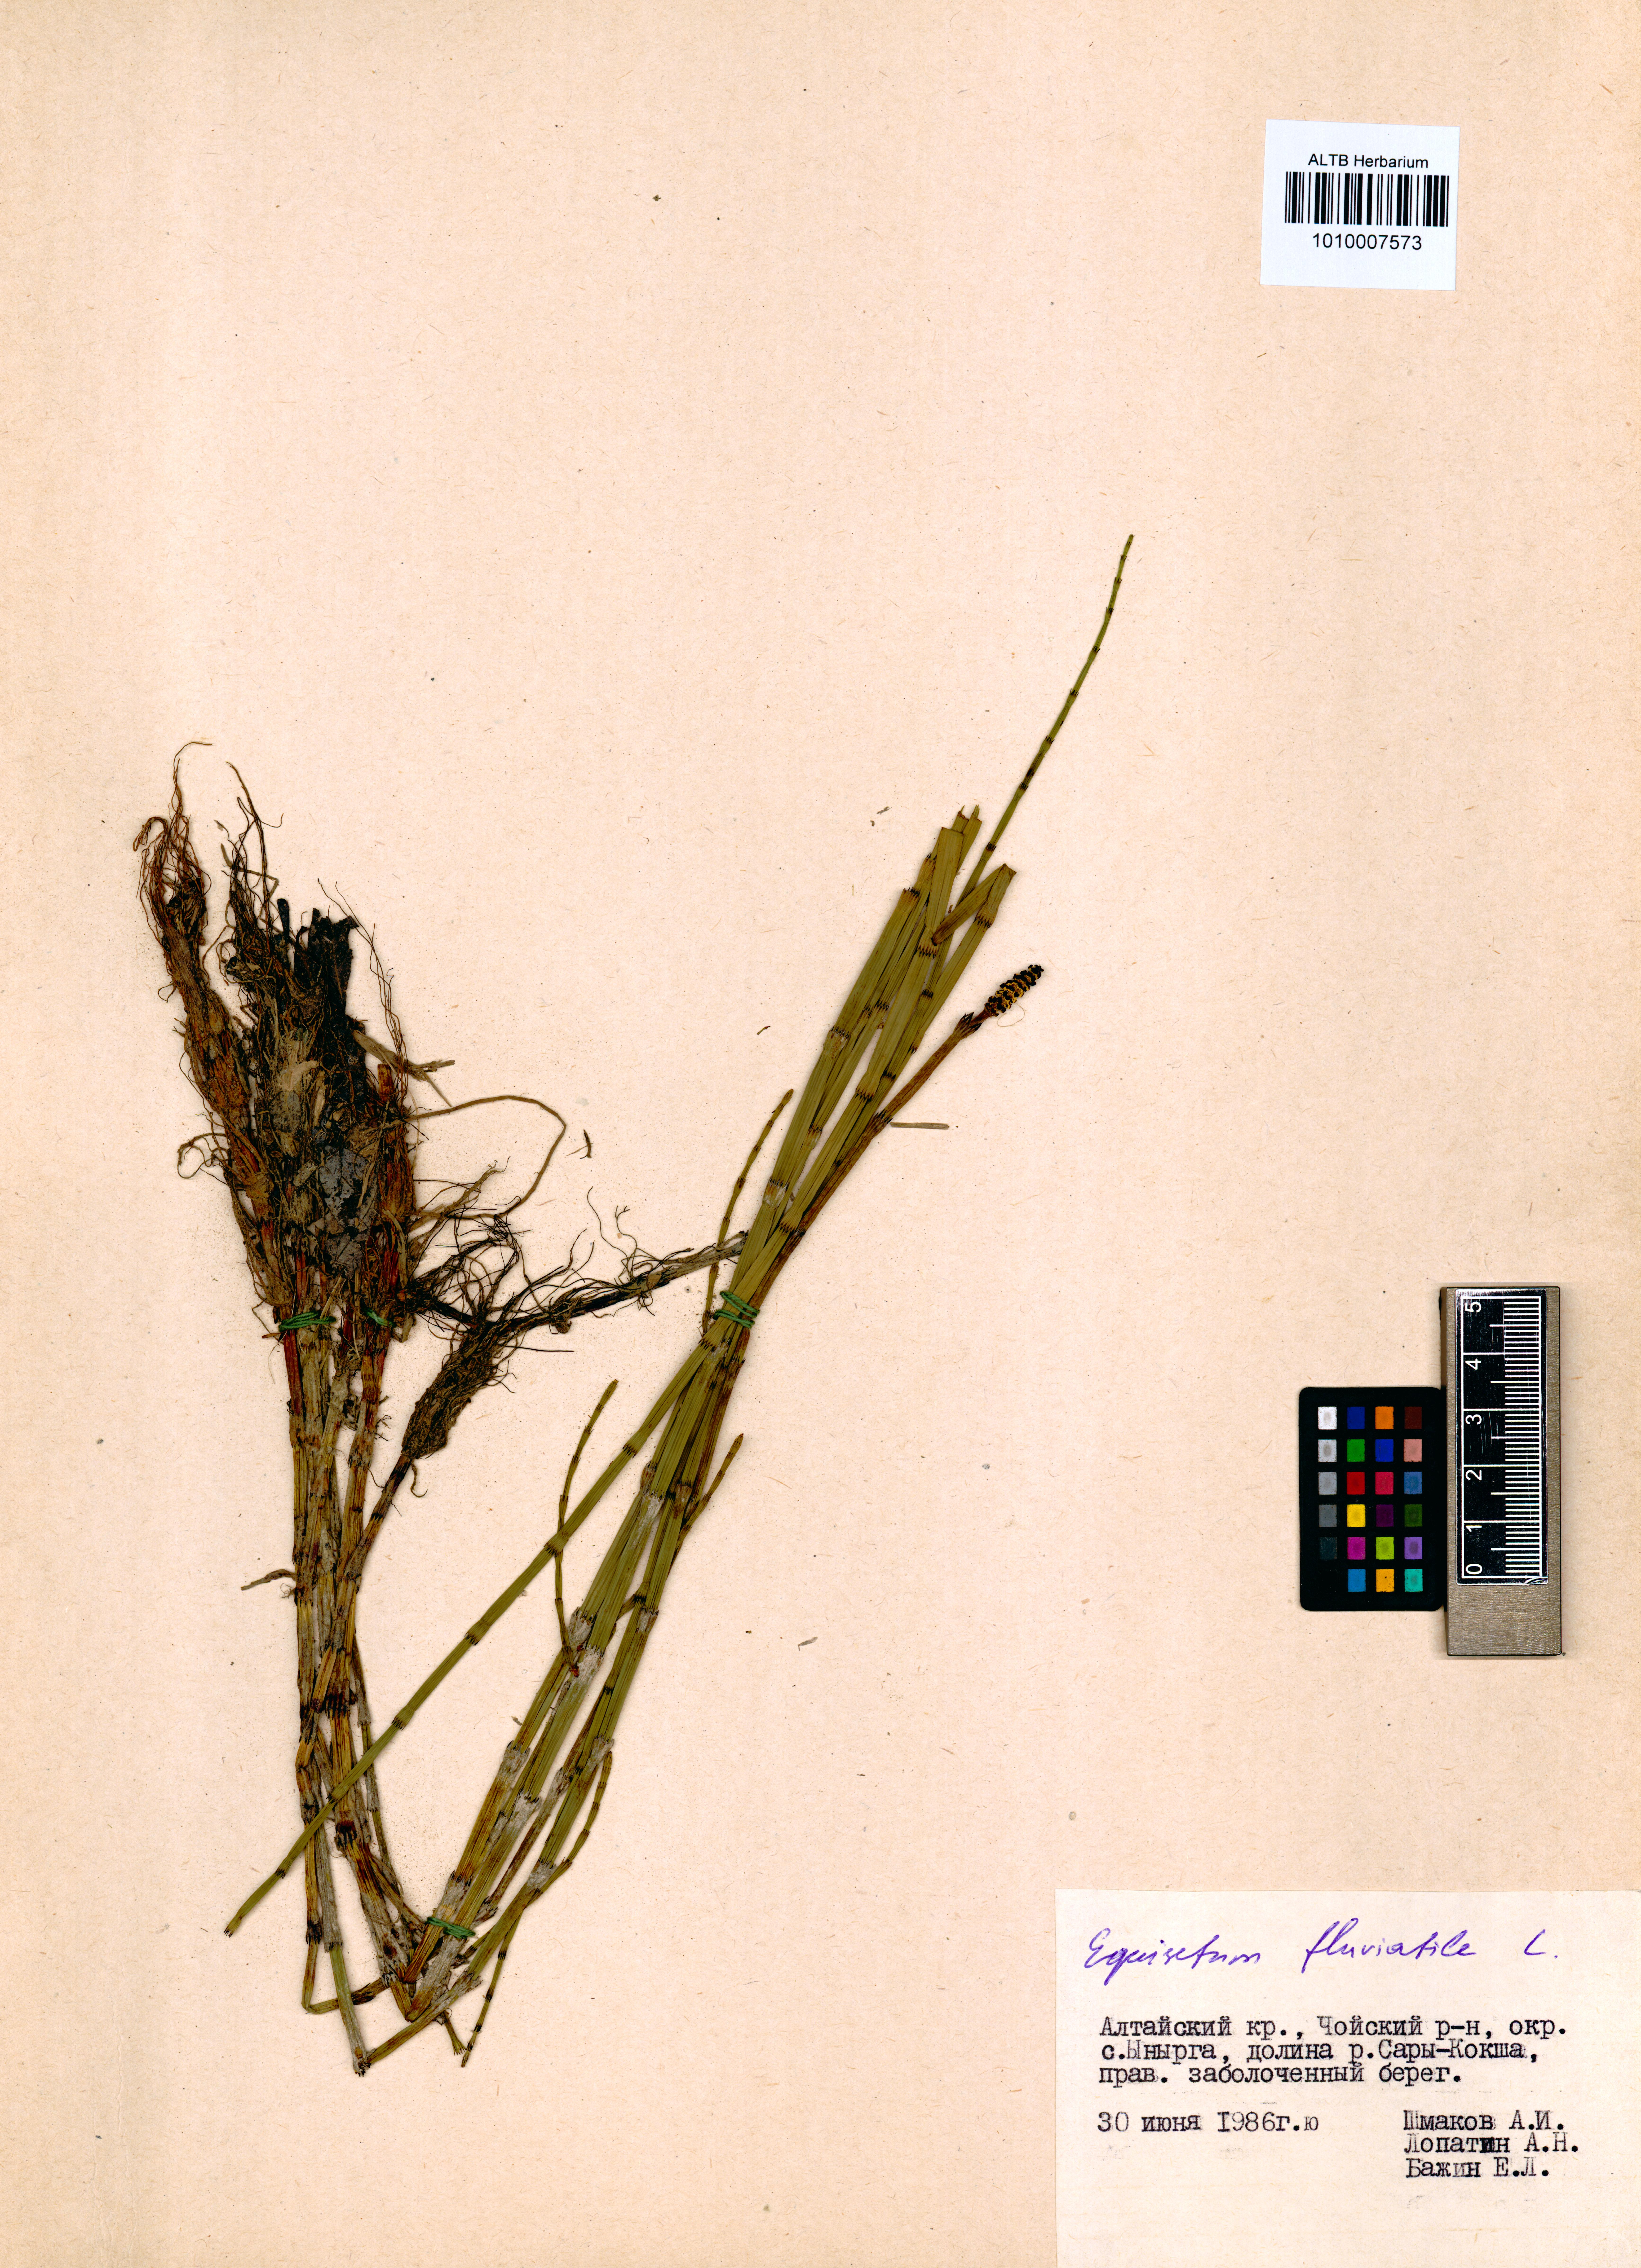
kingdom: Plantae
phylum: Tracheophyta
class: Polypodiopsida
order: Equisetales
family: Equisetaceae
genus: Equisetum
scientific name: Equisetum fluviatile
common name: Water horsetail
